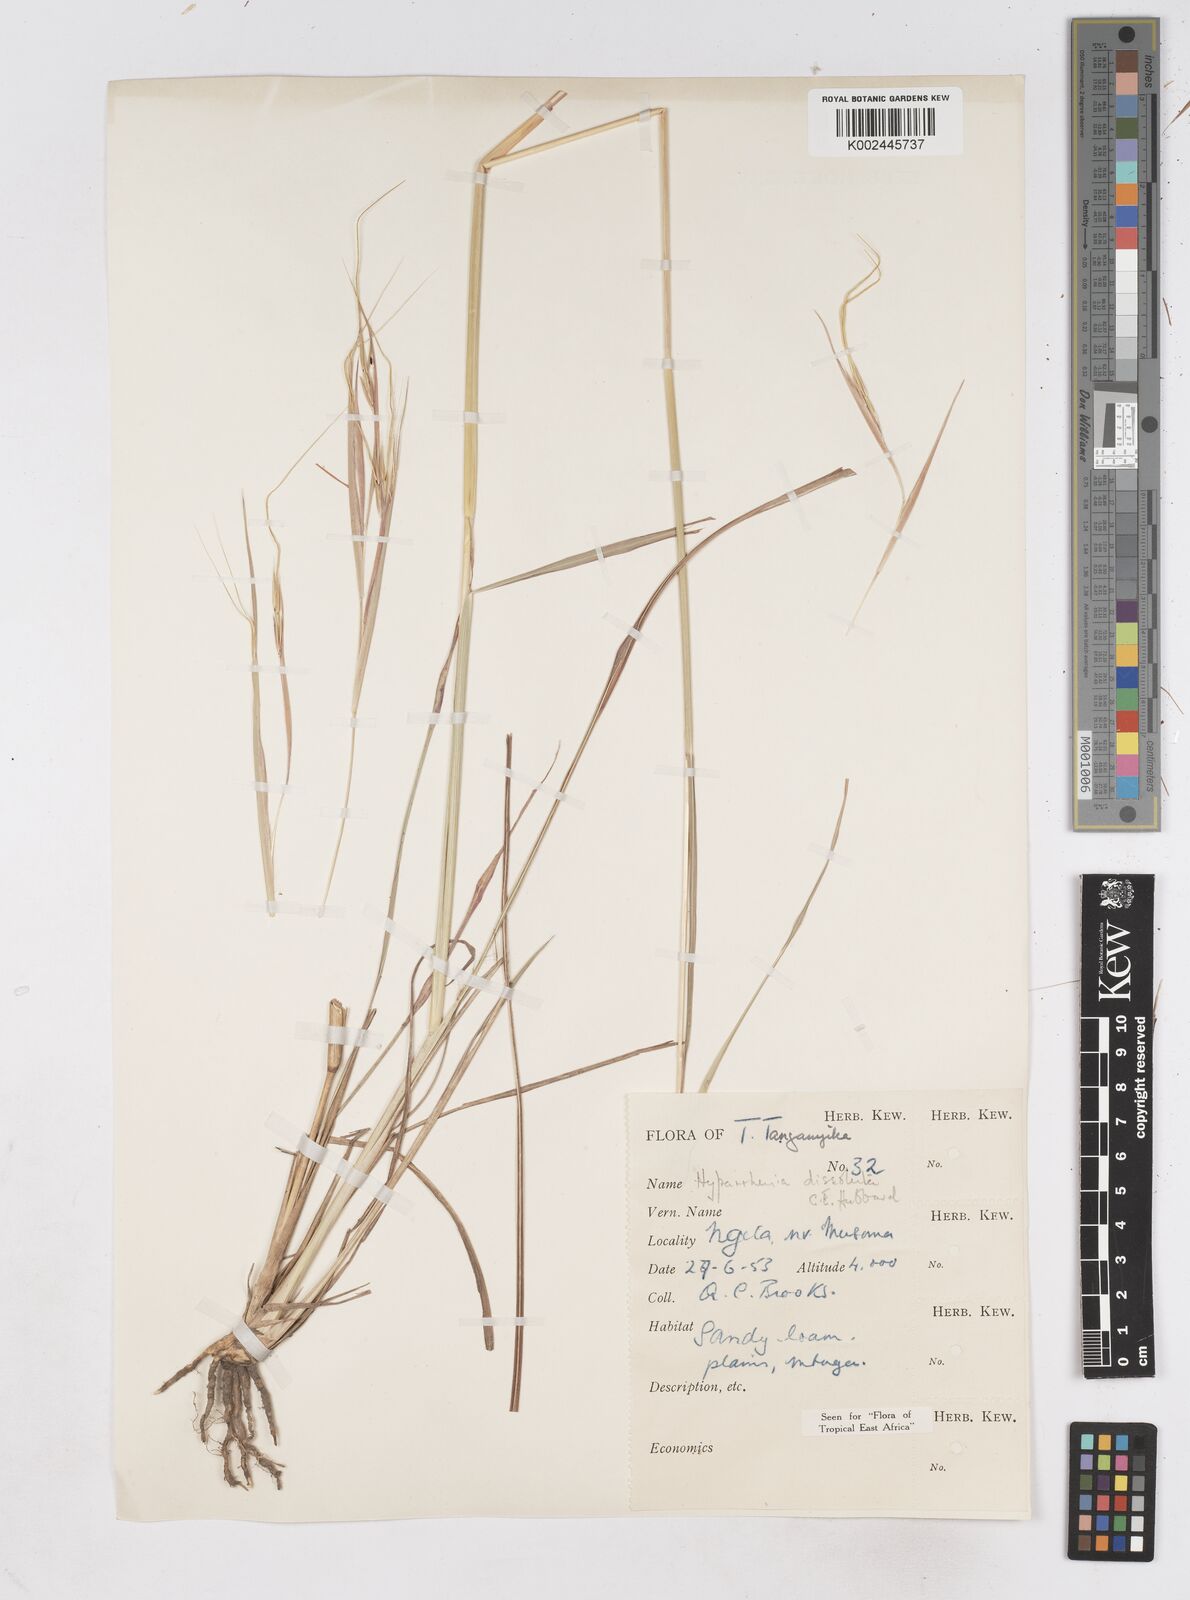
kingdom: Plantae
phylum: Tracheophyta
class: Liliopsida
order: Poales
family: Poaceae
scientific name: Poaceae
